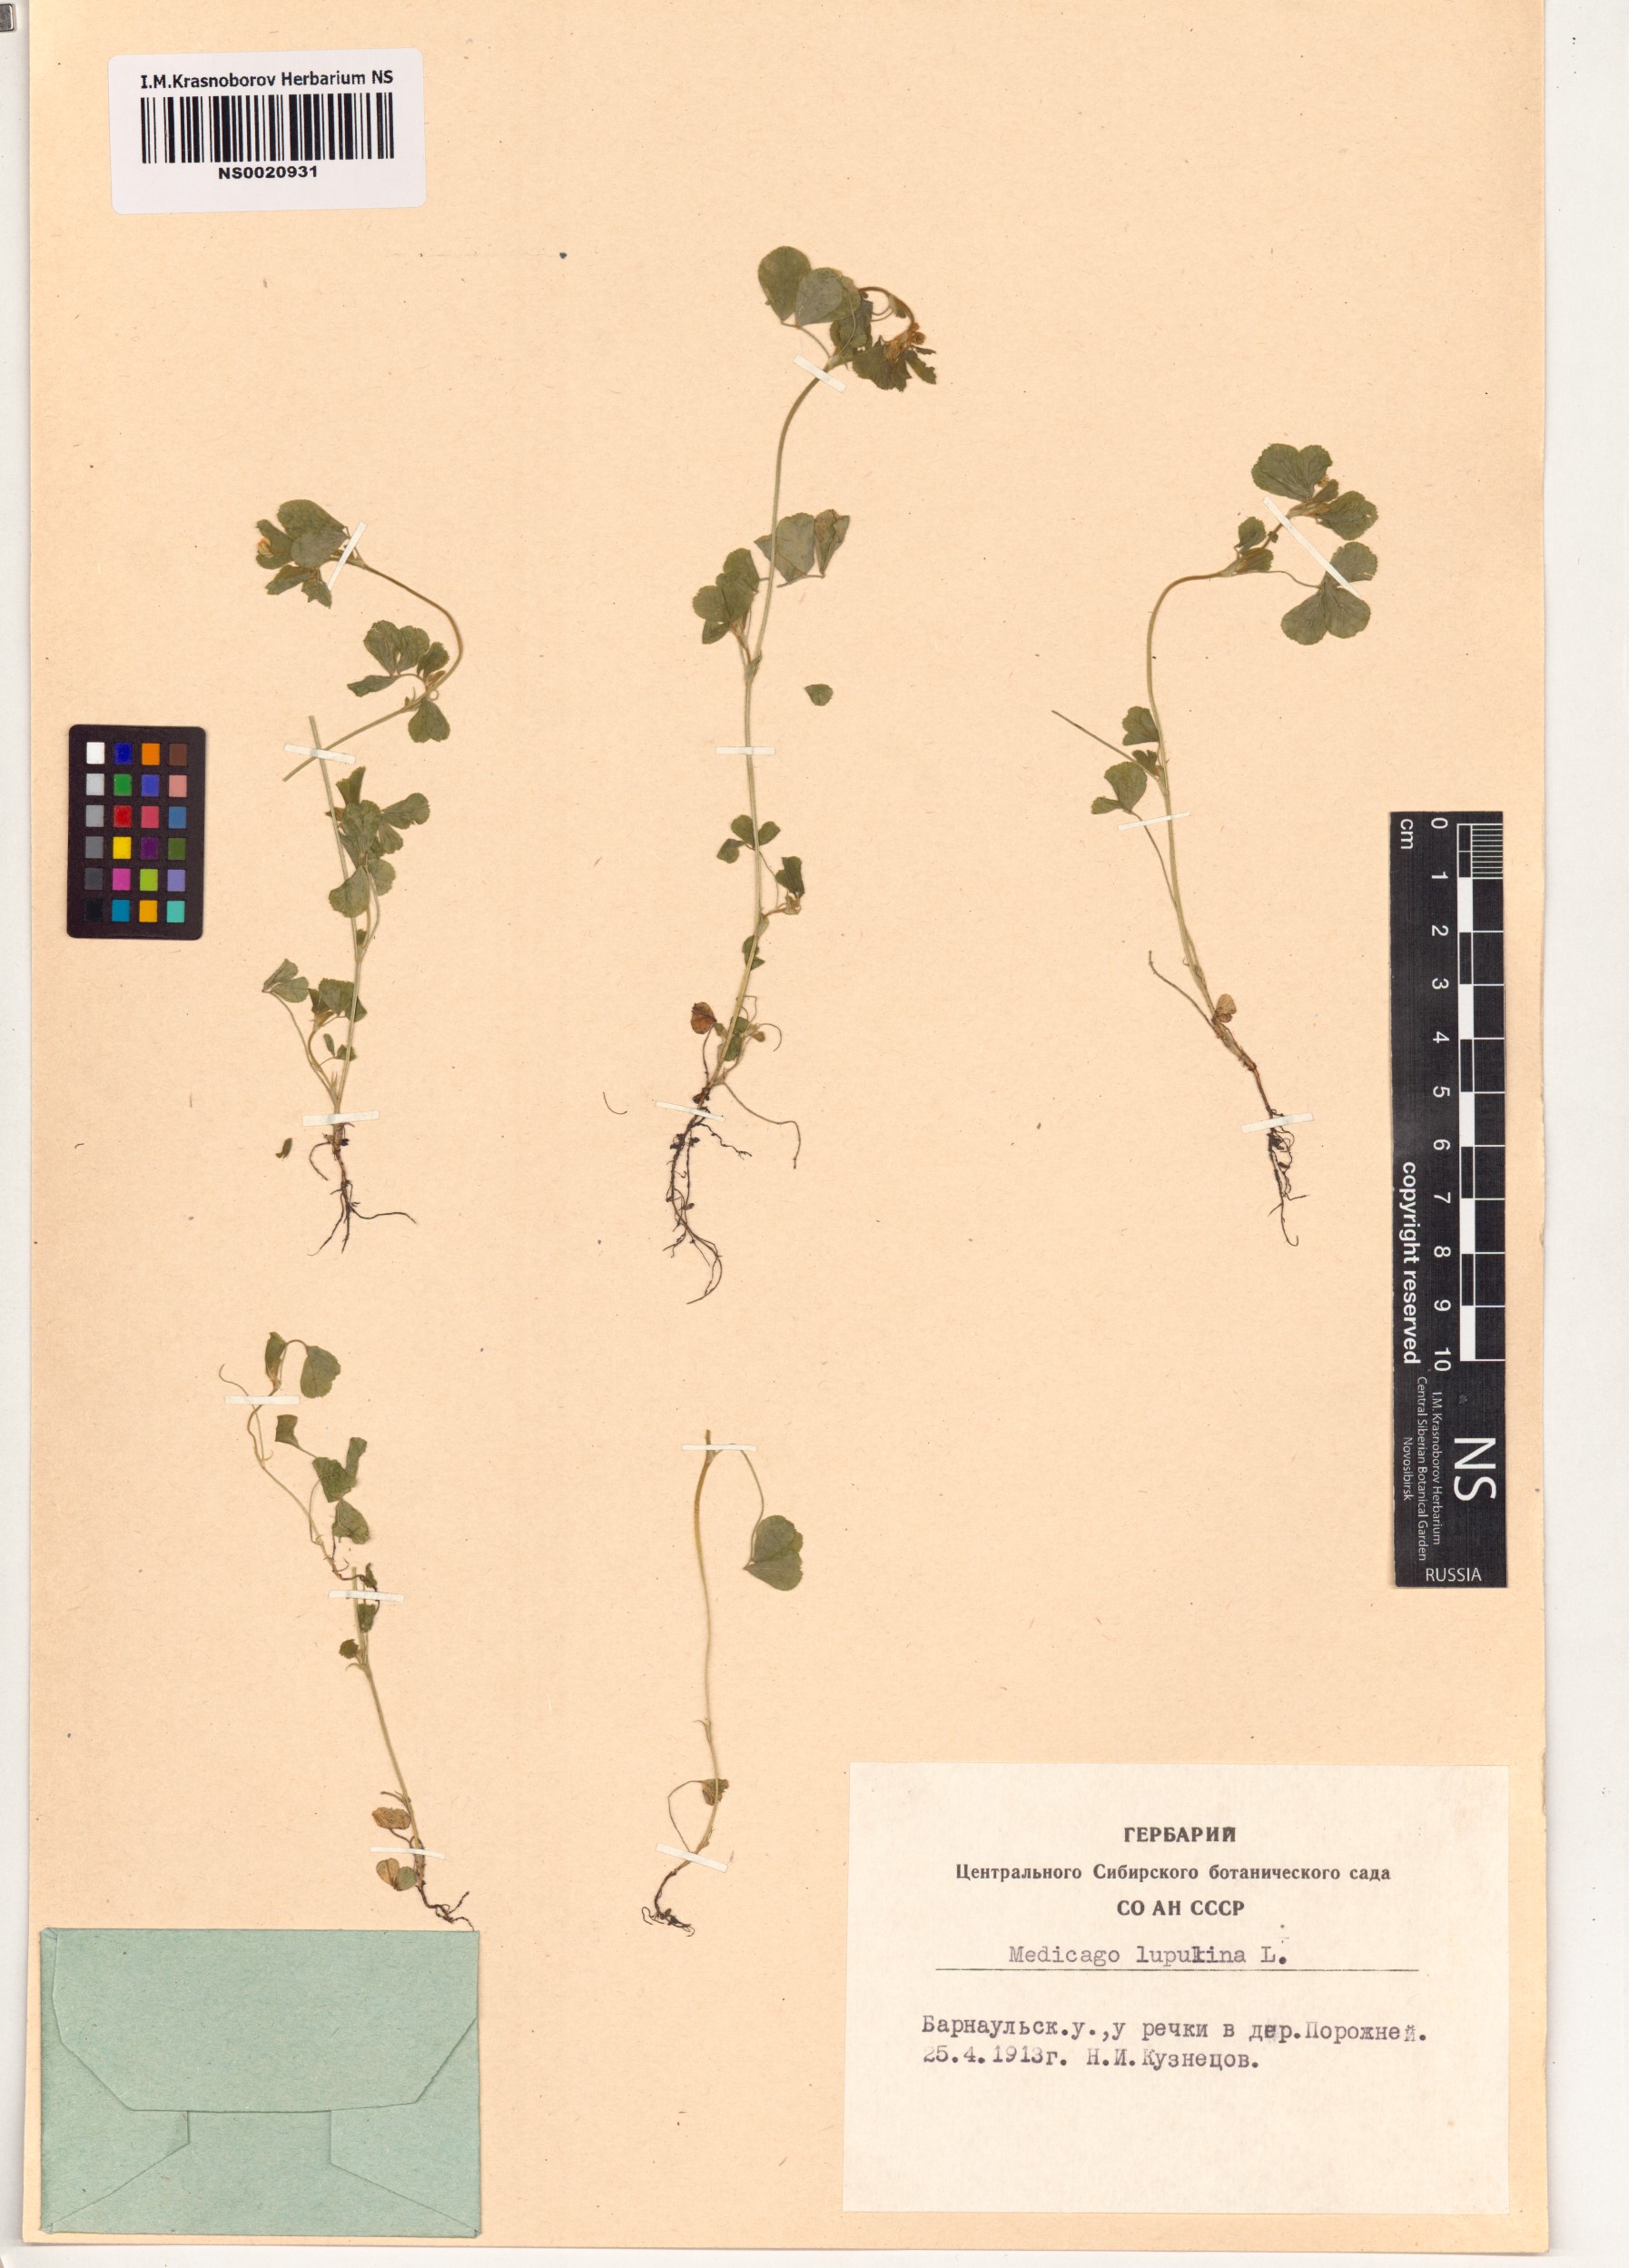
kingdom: Plantae
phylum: Tracheophyta
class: Magnoliopsida
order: Fabales
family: Fabaceae
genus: Medicago
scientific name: Medicago lupulina
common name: Black medick
